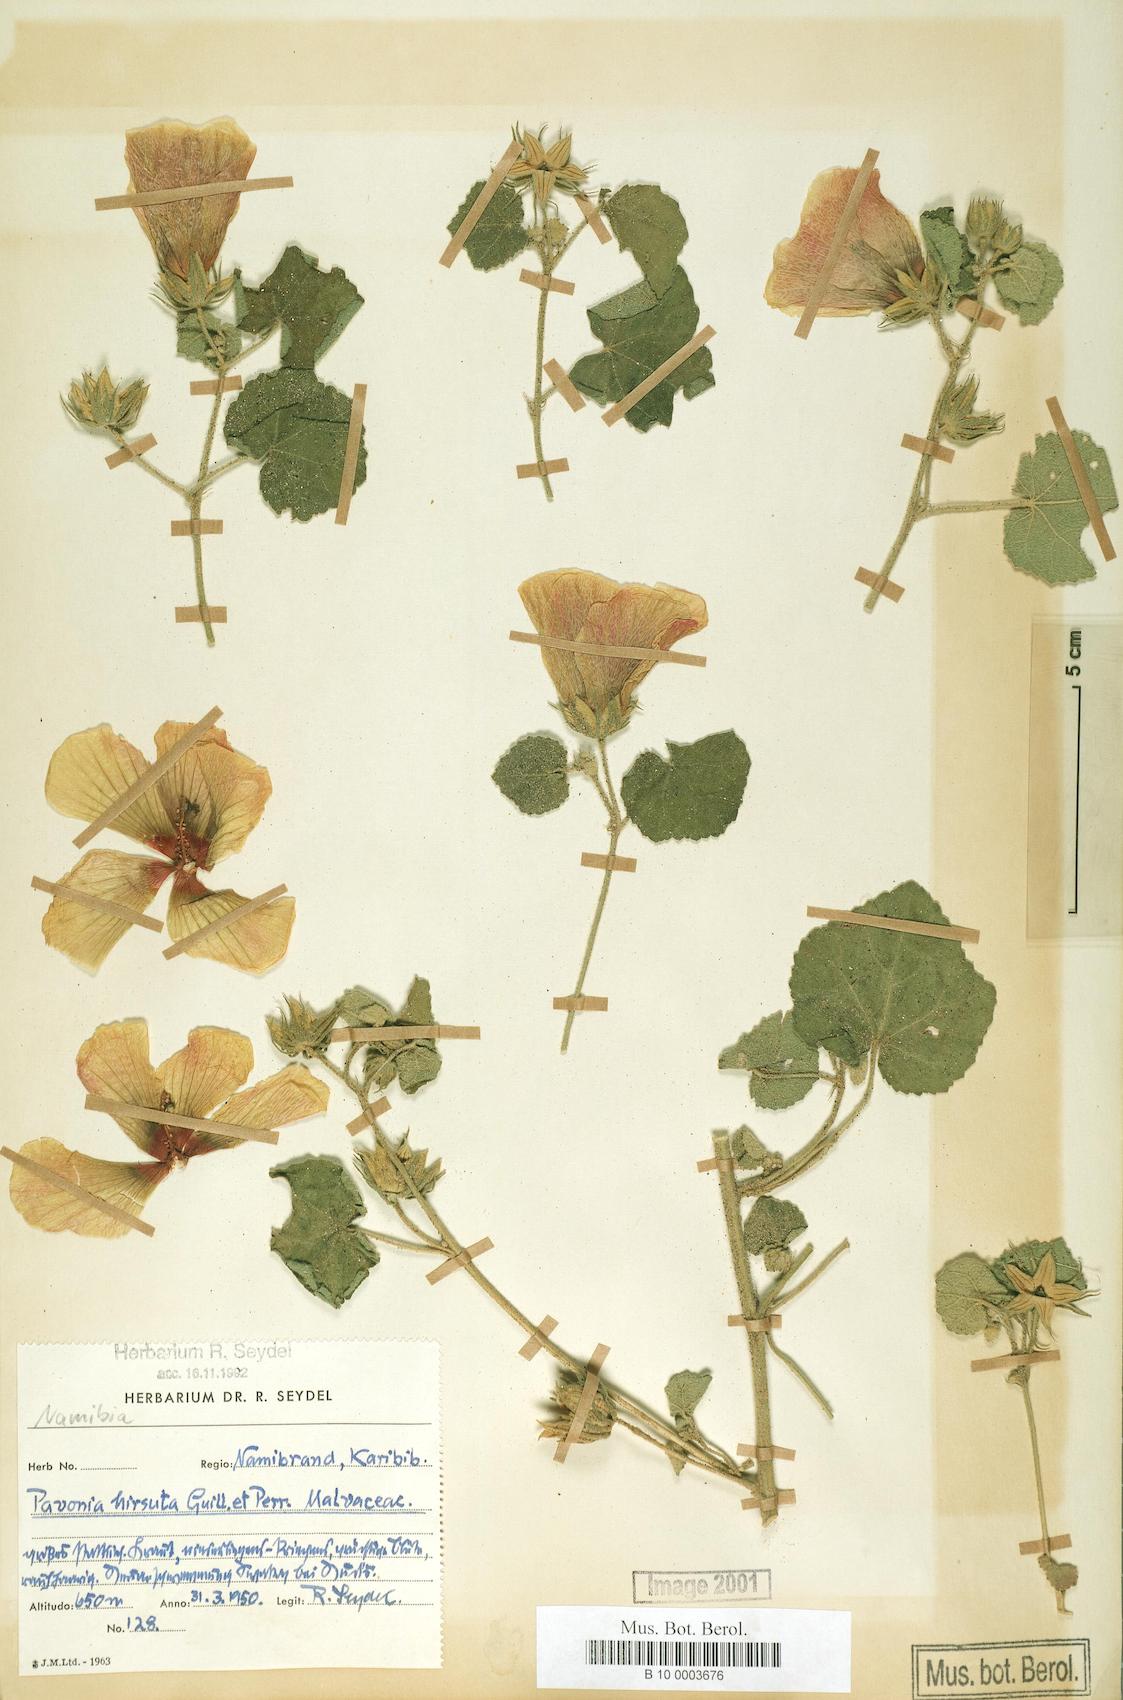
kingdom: Plantae
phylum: Tracheophyta
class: Magnoliopsida
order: Malvales
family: Malvaceae
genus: Pavonia
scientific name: Pavonia senegalensis
